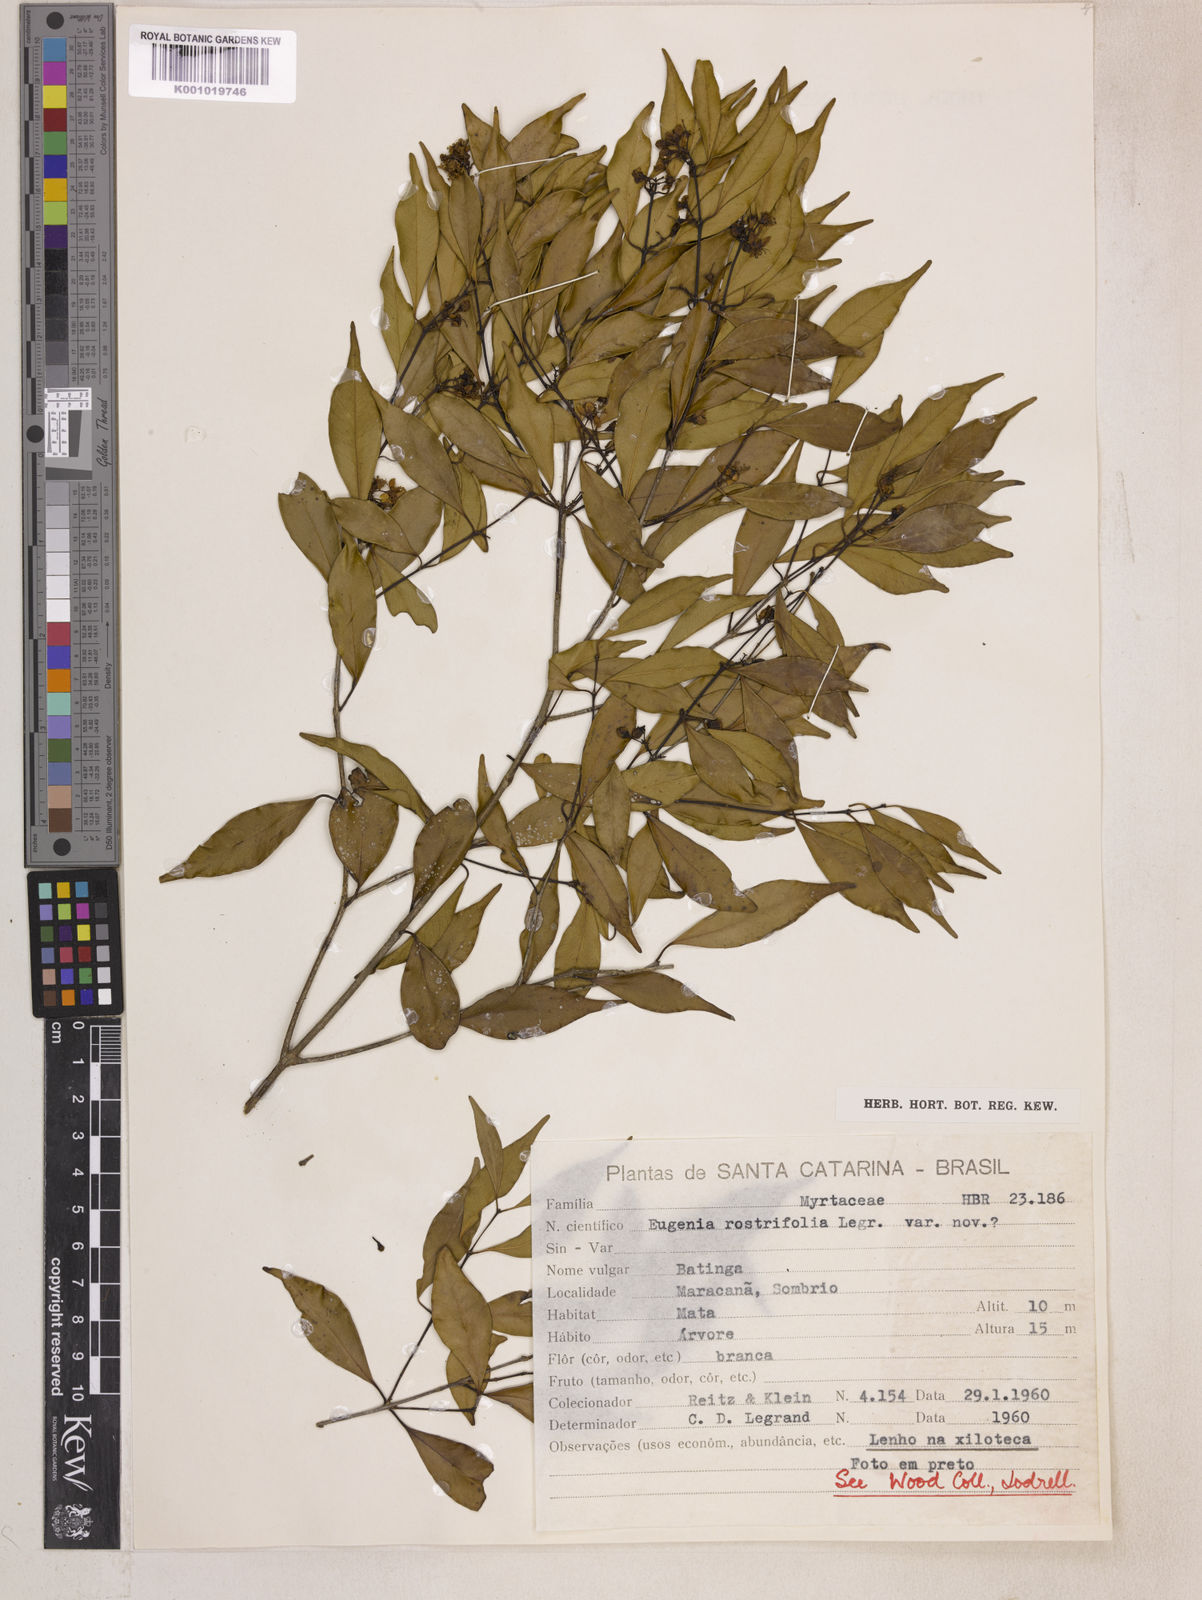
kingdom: Plantae
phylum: Tracheophyta
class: Magnoliopsida
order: Myrtales
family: Myrtaceae
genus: Eugenia
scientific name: Eugenia rostrifolia
